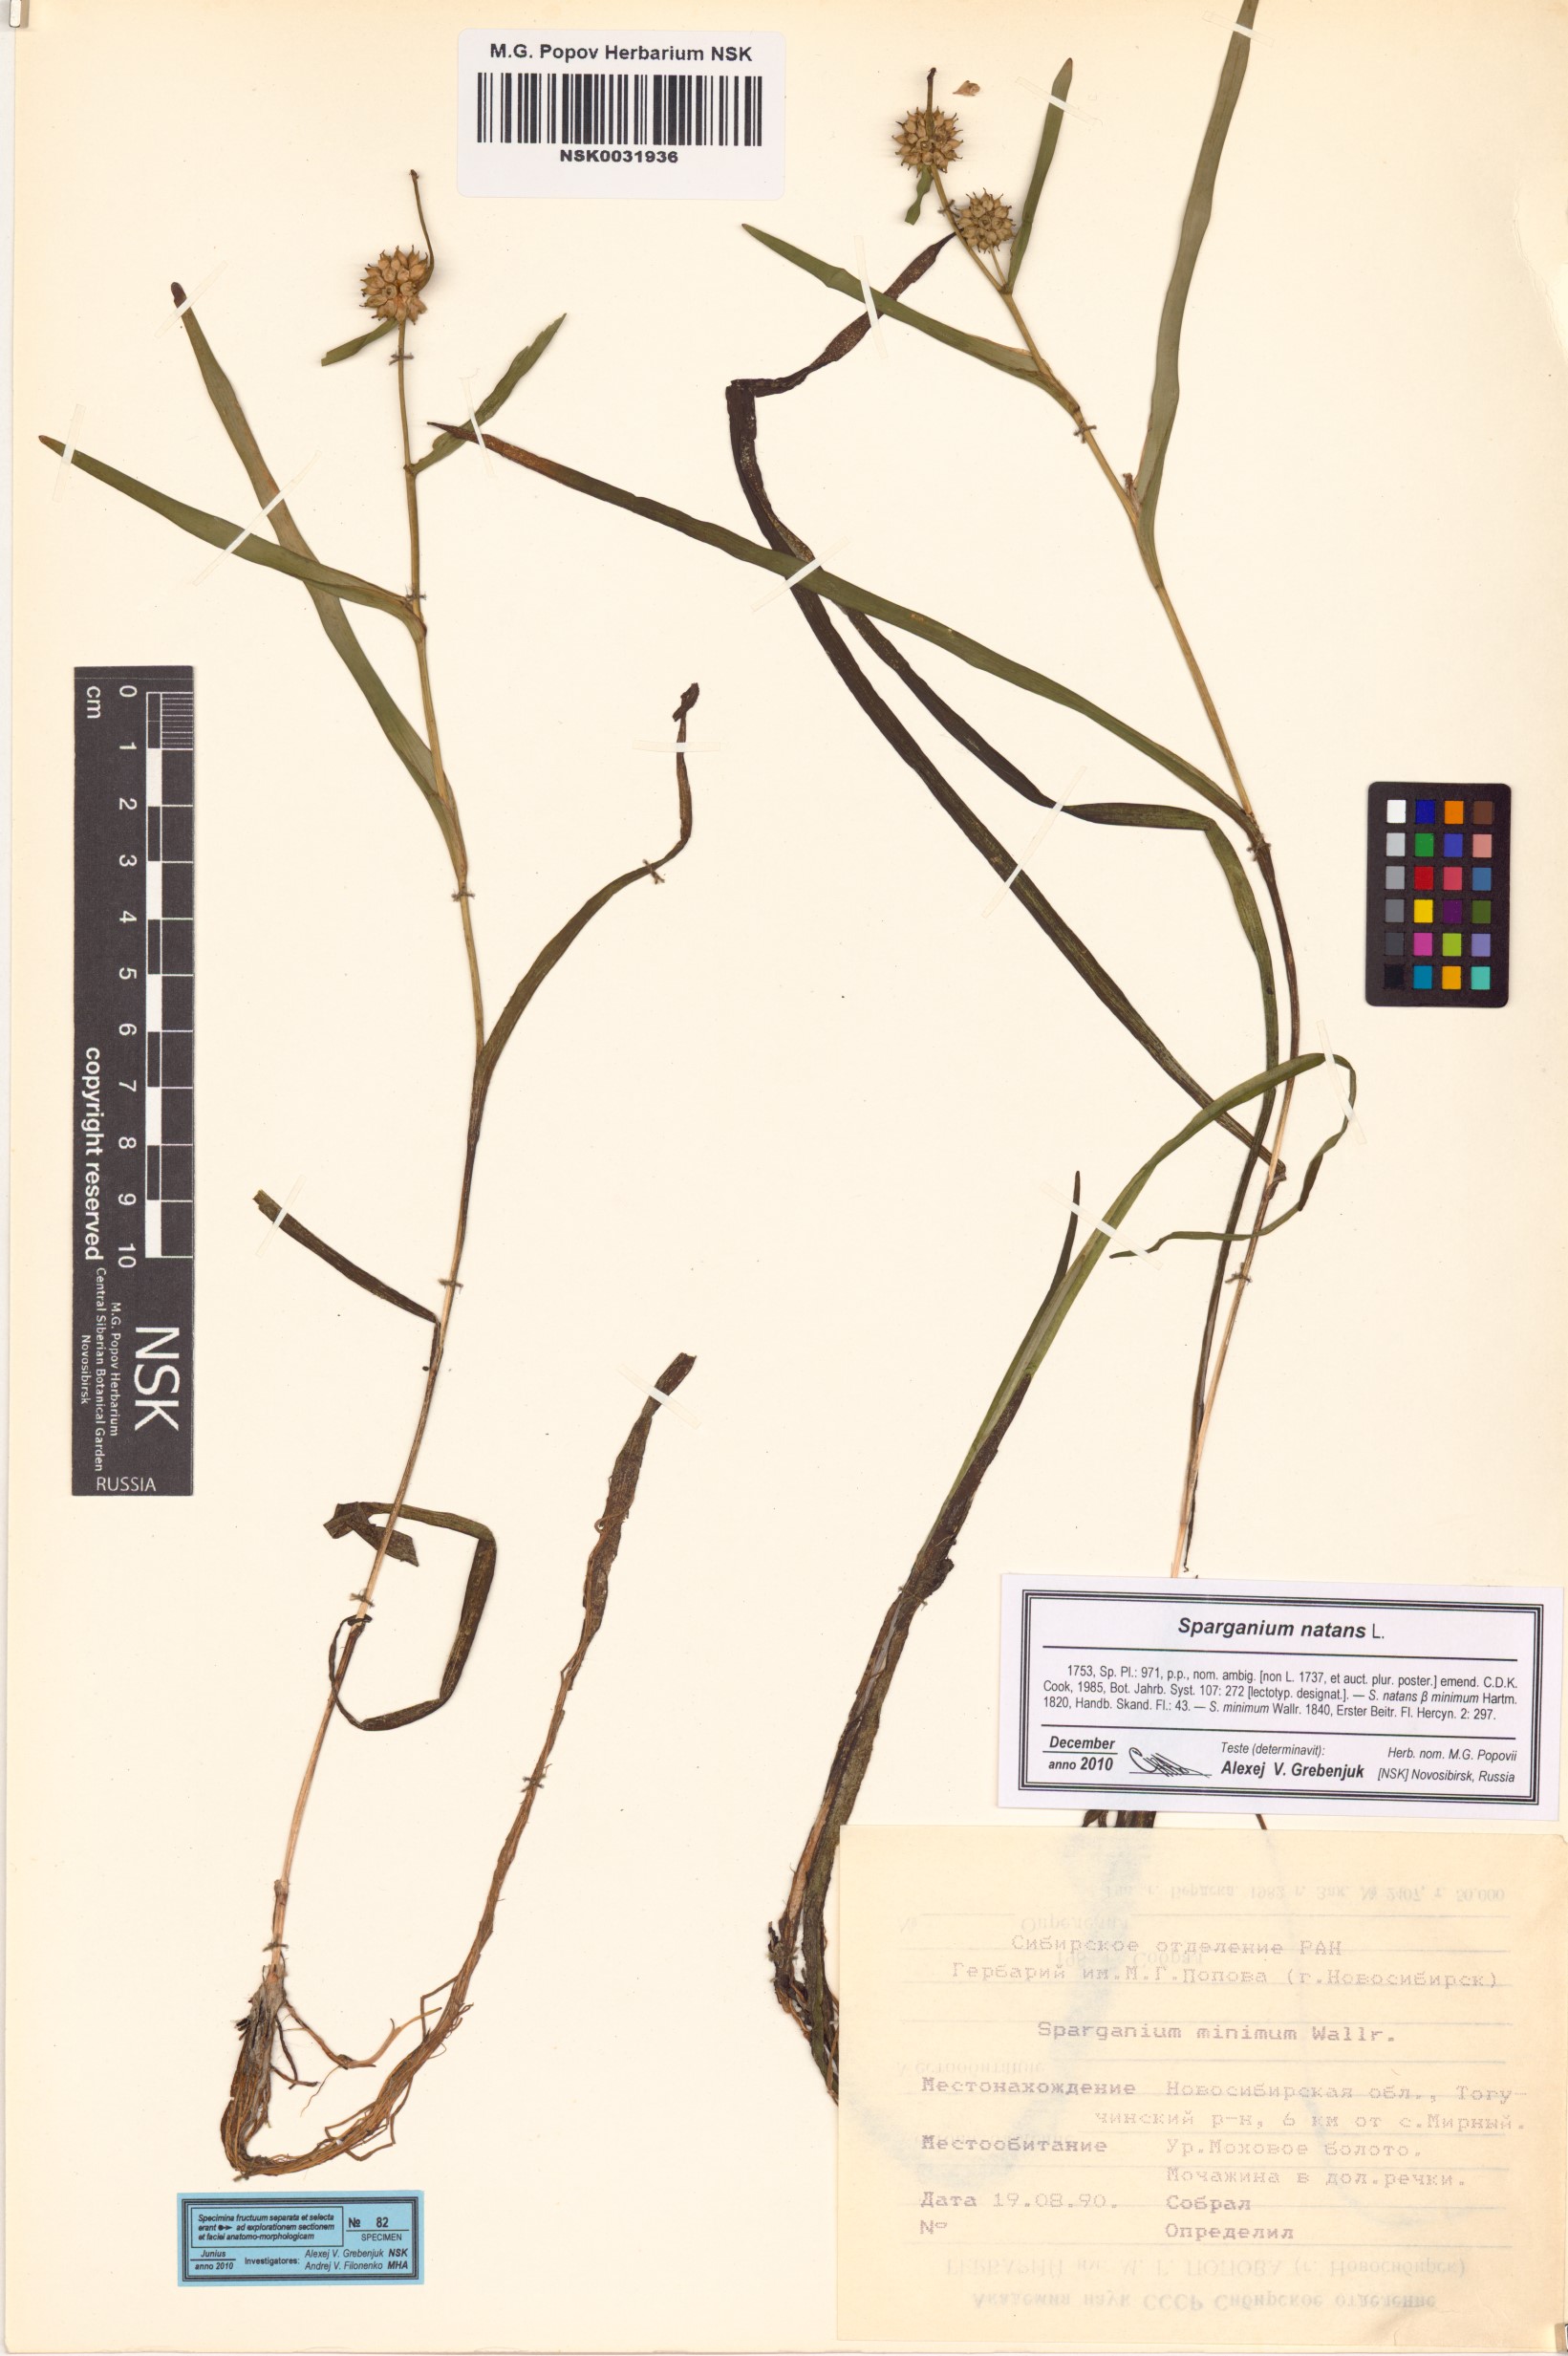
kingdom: Plantae
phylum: Tracheophyta
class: Liliopsida
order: Poales
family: Typhaceae
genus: Sparganium
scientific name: Sparganium natans
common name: Least bur-reed
